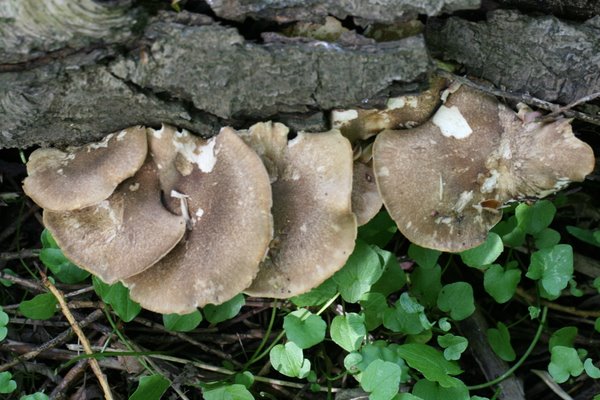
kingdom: Fungi
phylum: Basidiomycota
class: Agaricomycetes
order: Polyporales
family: Polyporaceae
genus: Lentinus
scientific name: Lentinus substrictus
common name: forårs-stilkporesvamp
